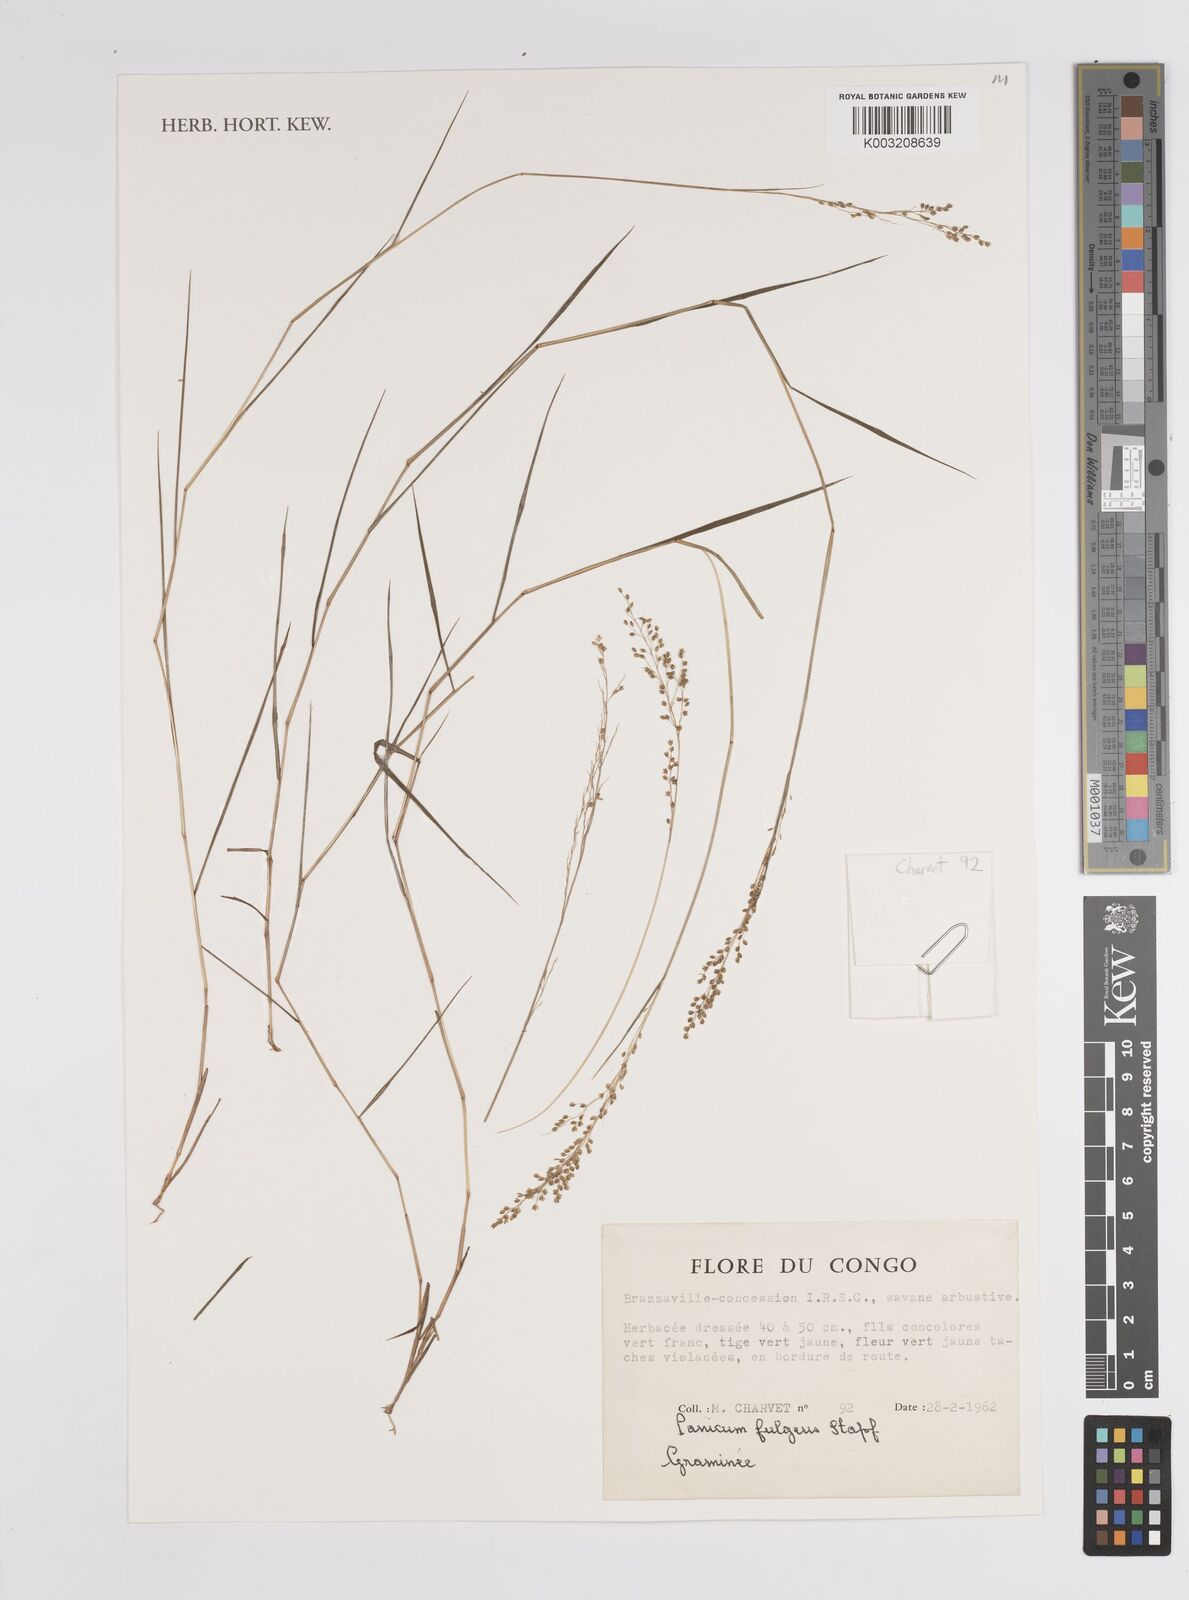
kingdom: Plantae
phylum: Tracheophyta
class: Liliopsida
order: Poales
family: Poaceae
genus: Trichanthecium
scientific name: Trichanthecium nervatum
